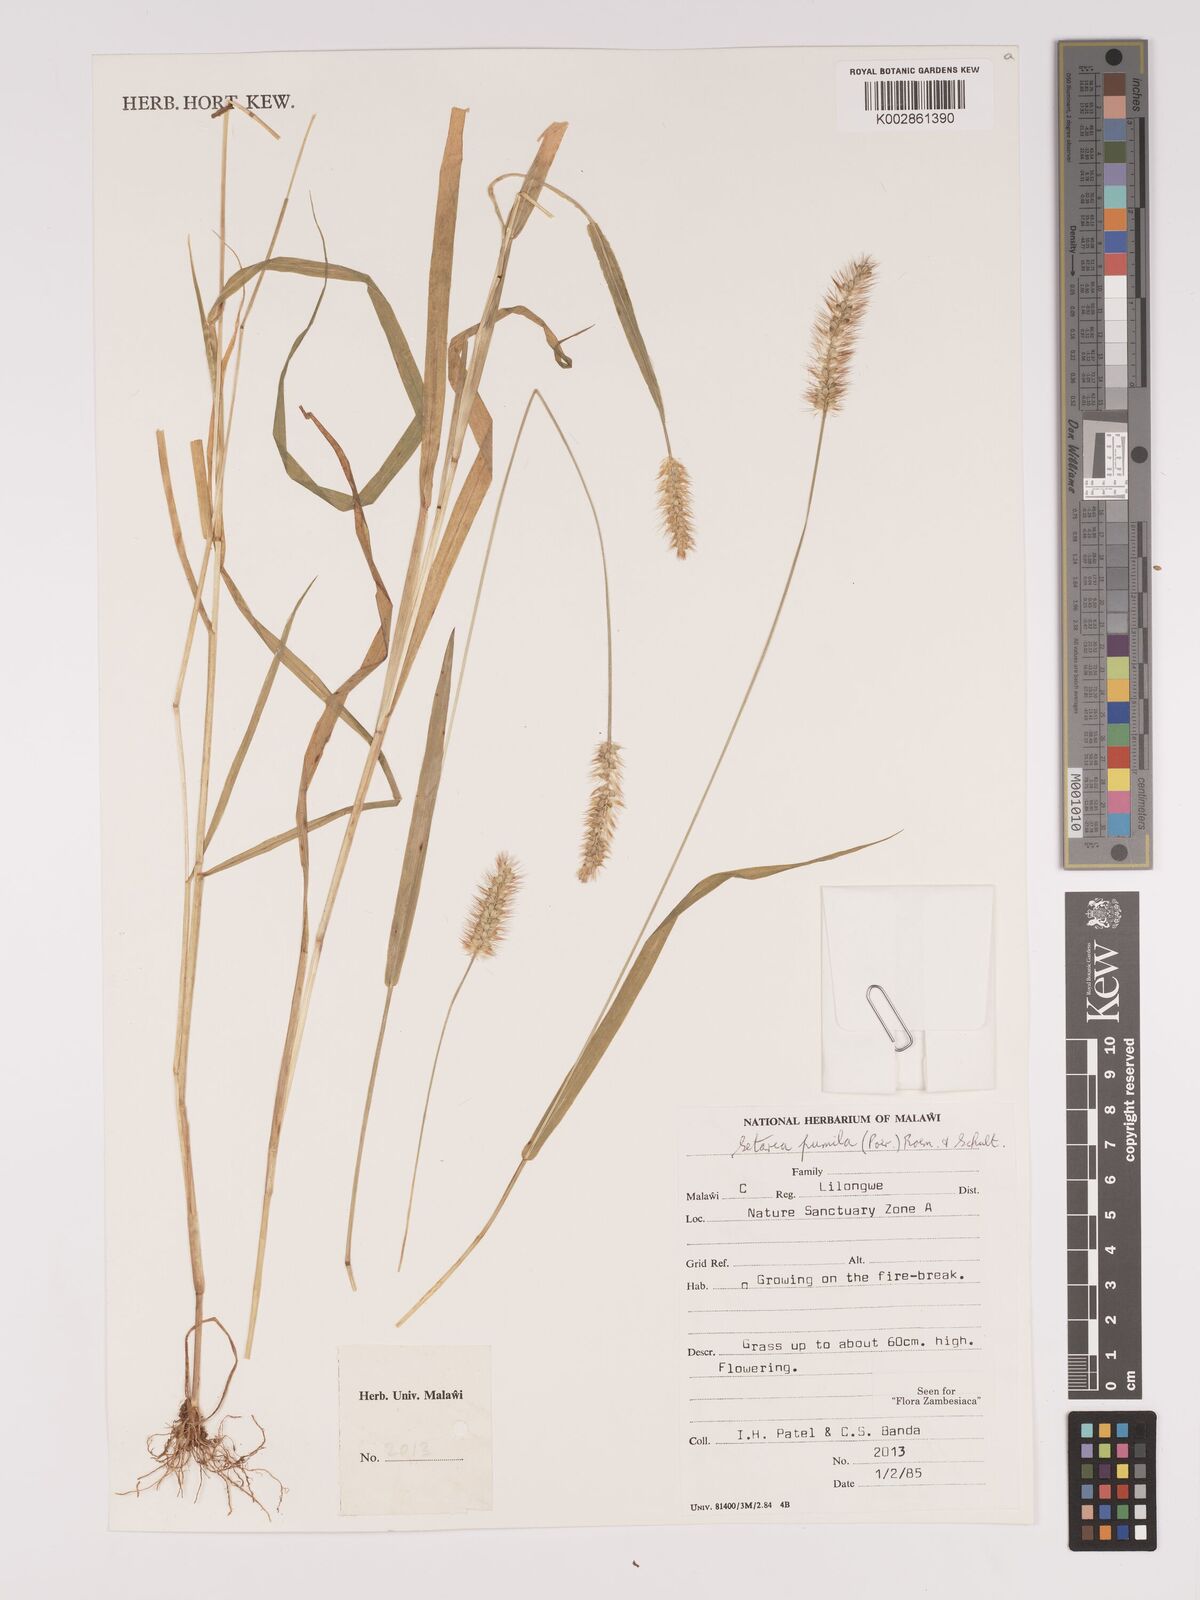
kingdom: Plantae
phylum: Tracheophyta
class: Liliopsida
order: Poales
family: Poaceae
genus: Setaria
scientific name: Setaria pumila
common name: Yellow bristle-grass
